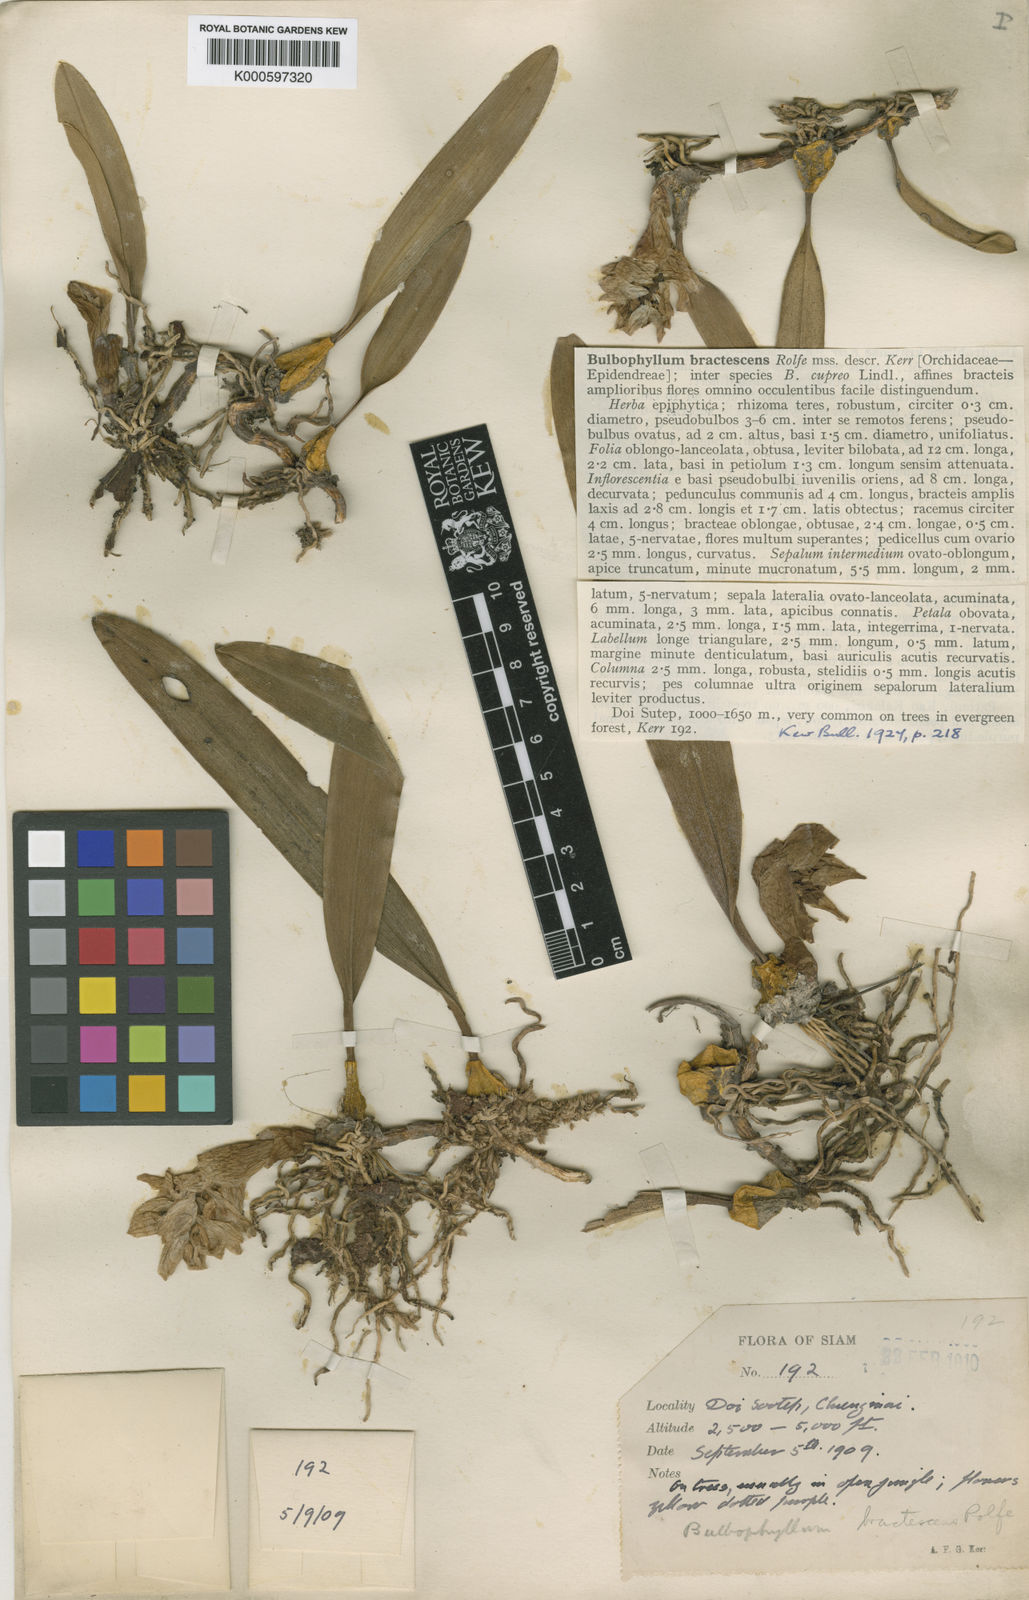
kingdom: Plantae
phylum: Tracheophyta
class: Liliopsida
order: Asparagales
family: Orchidaceae
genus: Bulbophyllum
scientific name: Bulbophyllum bractescens
